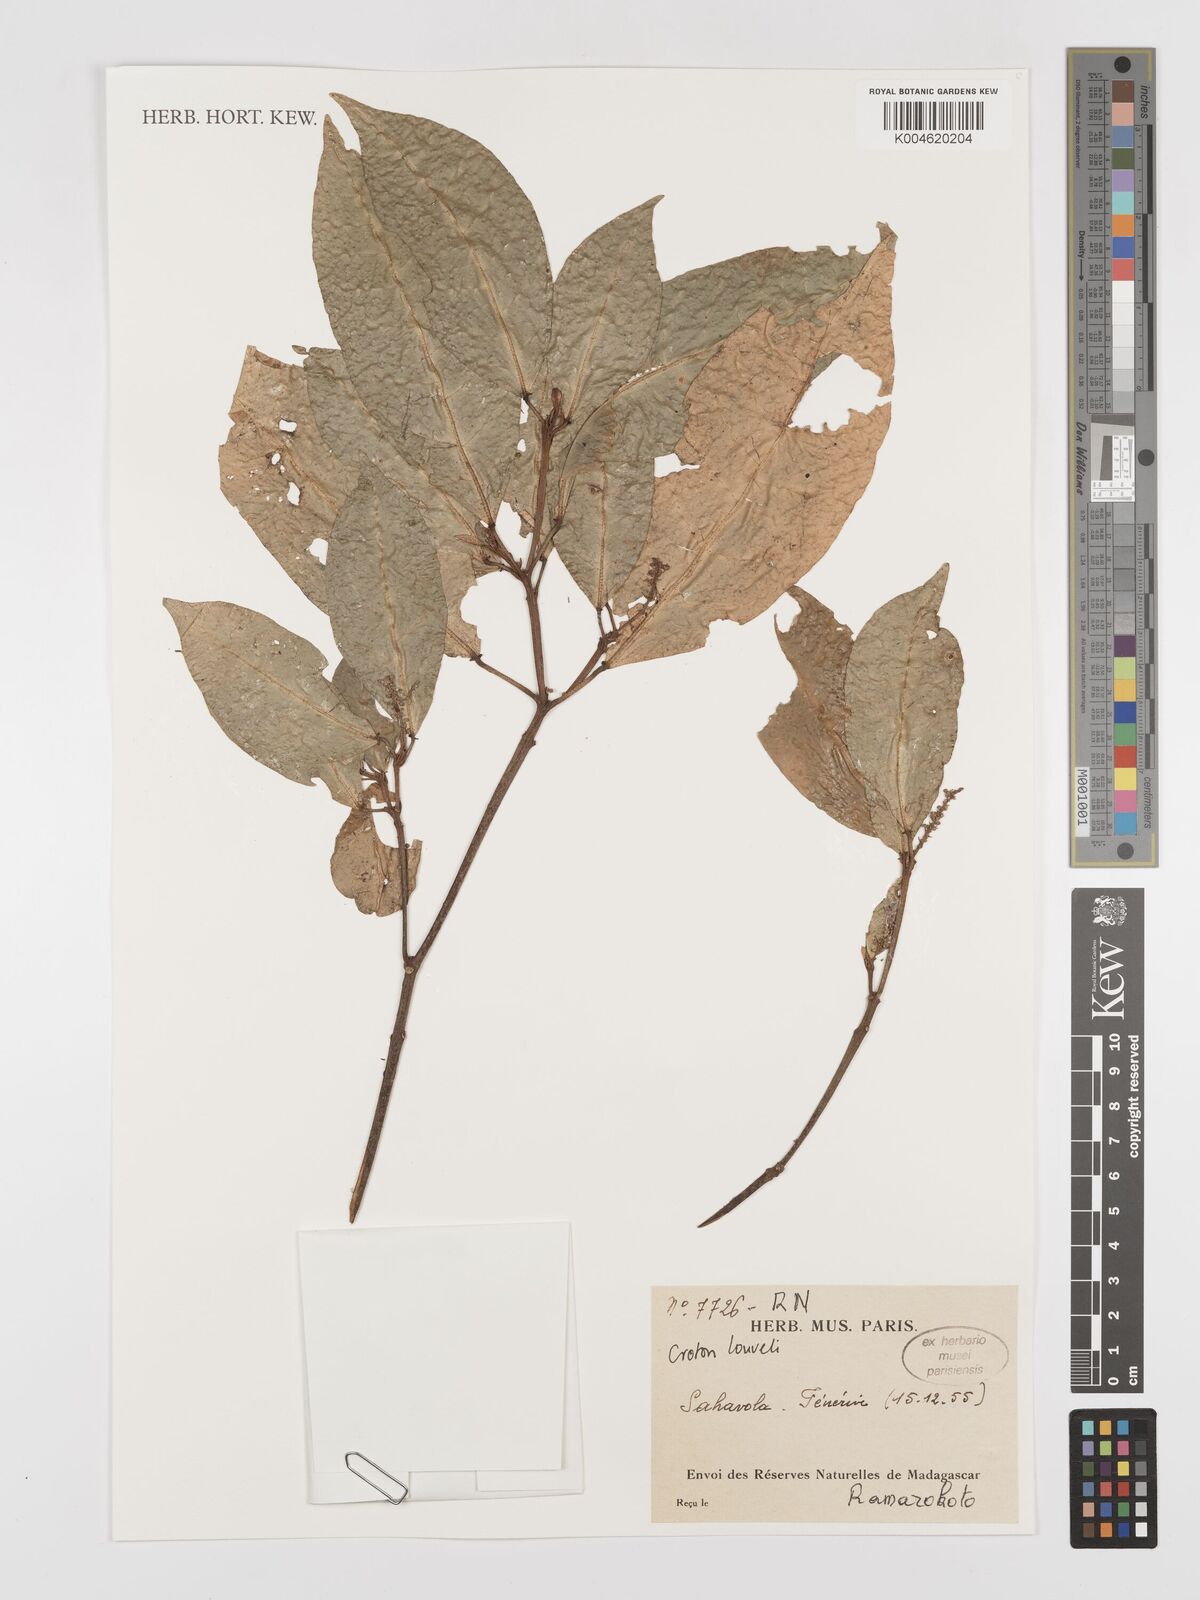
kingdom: Plantae
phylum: Tracheophyta
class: Magnoliopsida
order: Malpighiales
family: Euphorbiaceae
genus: Croton
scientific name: Croton chapelieri
